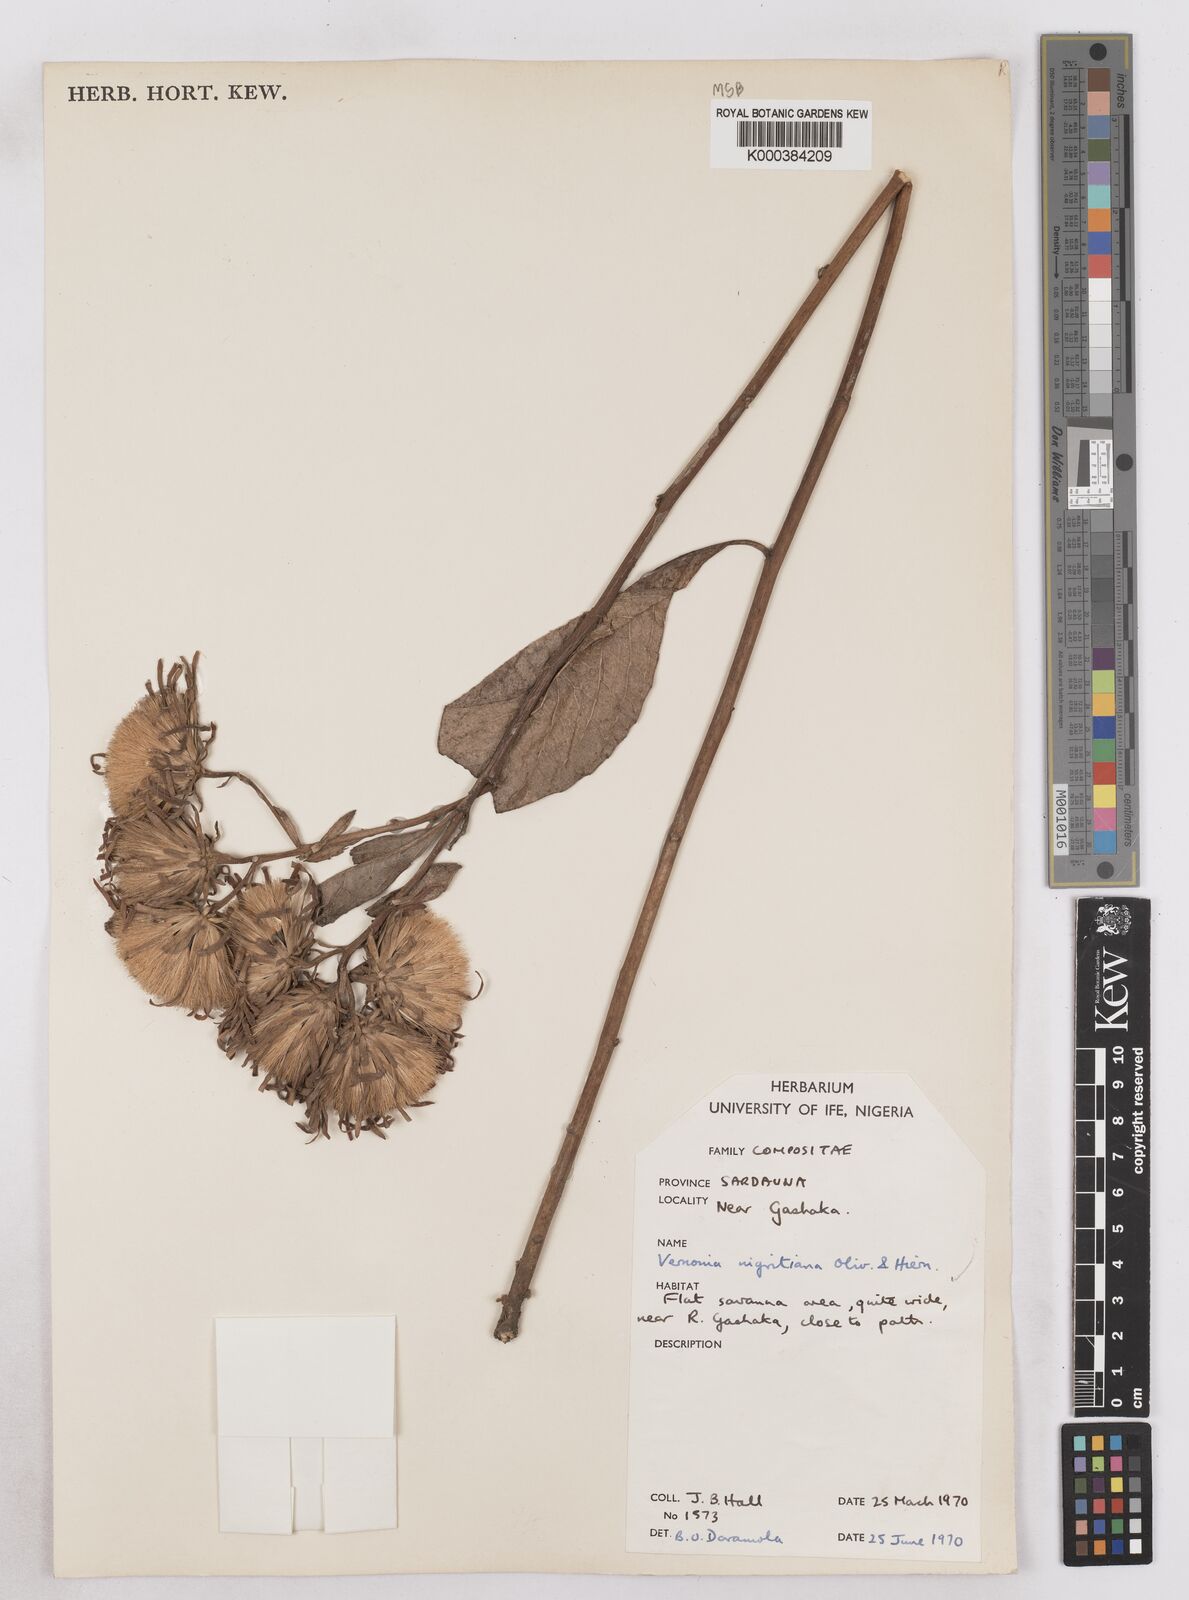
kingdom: Plantae
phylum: Tracheophyta
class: Magnoliopsida
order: Asterales
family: Asteraceae
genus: Linzia
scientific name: Linzia nigritiana
